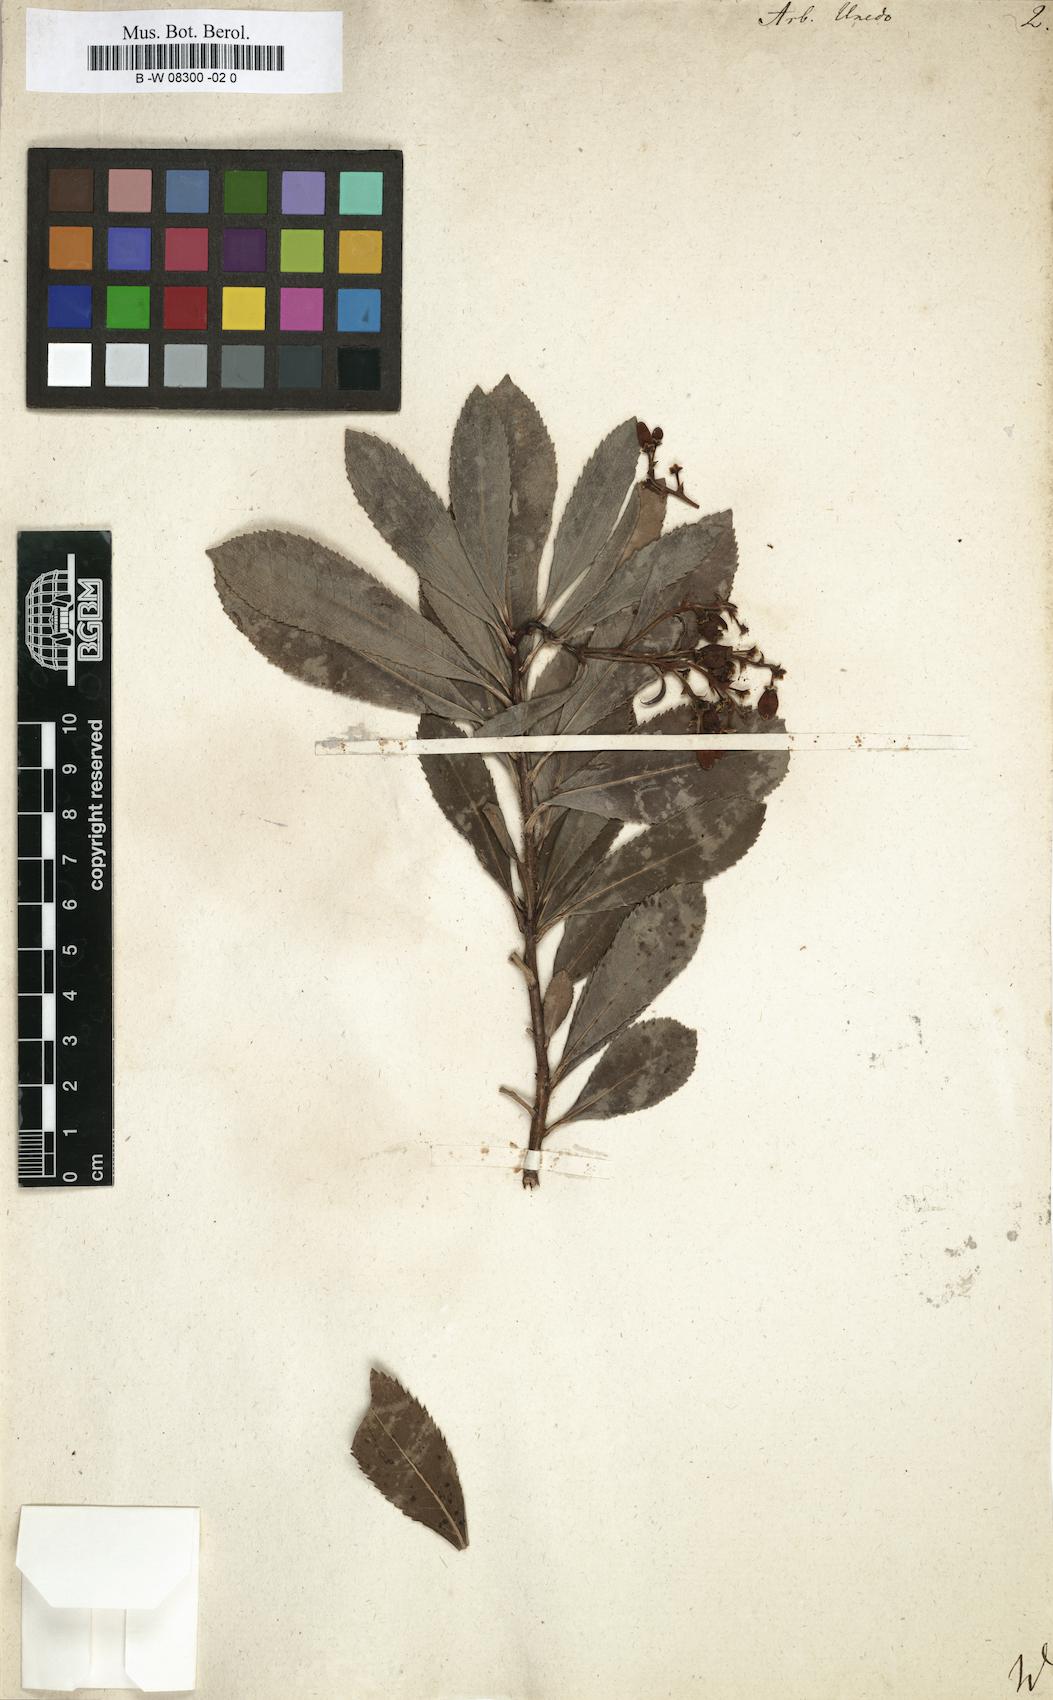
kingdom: Plantae
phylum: Tracheophyta
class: Magnoliopsida
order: Ericales
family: Ericaceae
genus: Arbutus
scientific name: Arbutus unedo
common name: Strawberry-tree
